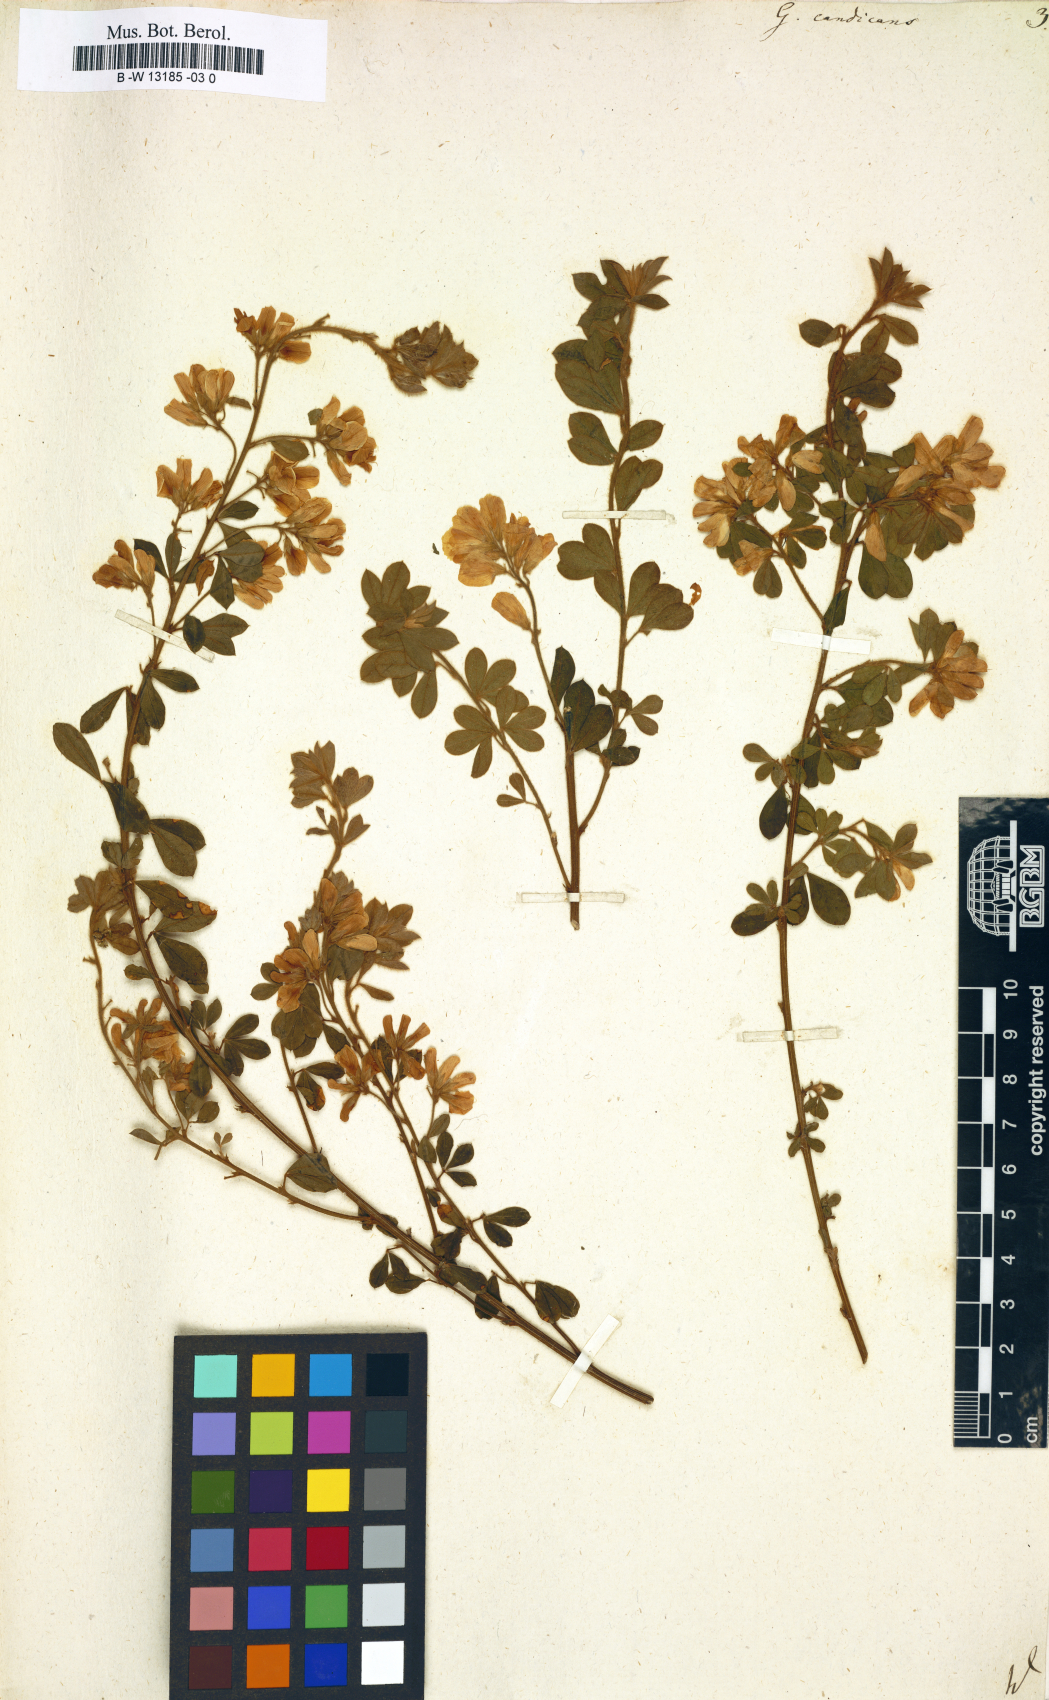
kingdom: Plantae
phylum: Tracheophyta
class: Magnoliopsida
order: Fabales
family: Fabaceae
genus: Genista
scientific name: Genista monspessulana
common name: Montpellier broom
